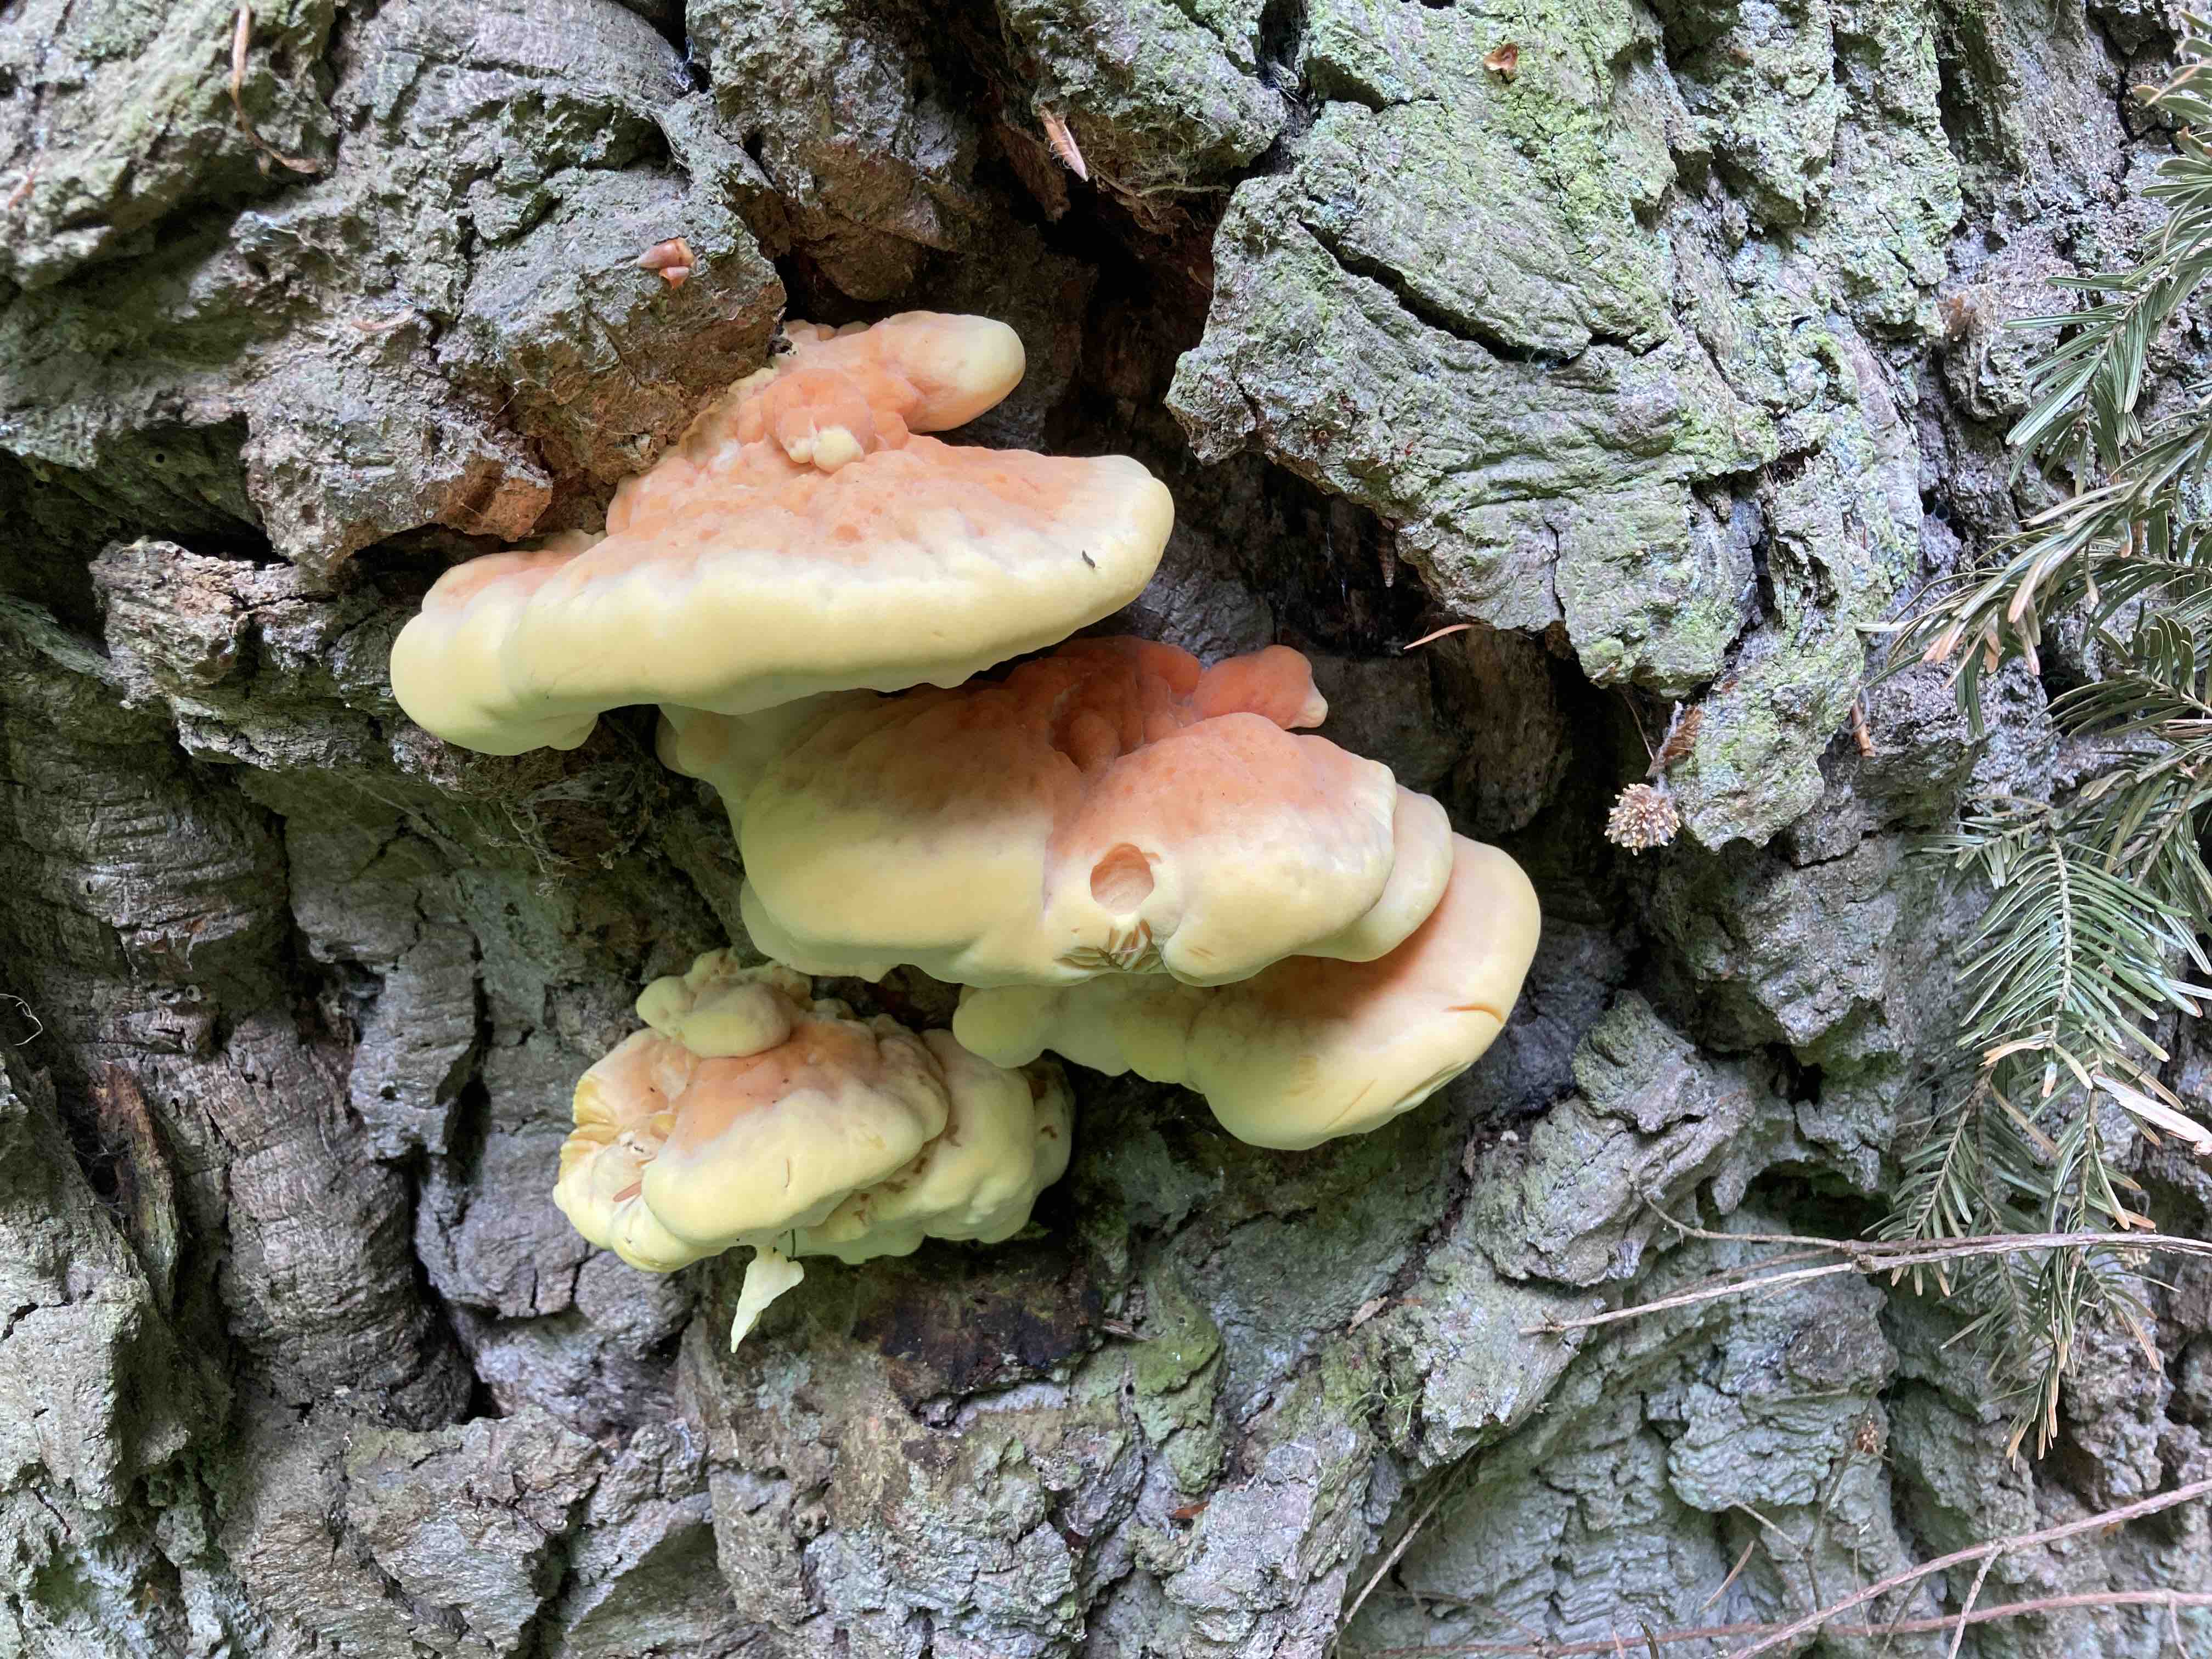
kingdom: Fungi
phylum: Basidiomycota
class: Agaricomycetes
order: Polyporales
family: Laetiporaceae
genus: Laetiporus
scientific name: Laetiporus sulphureus
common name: svovlporesvamp
